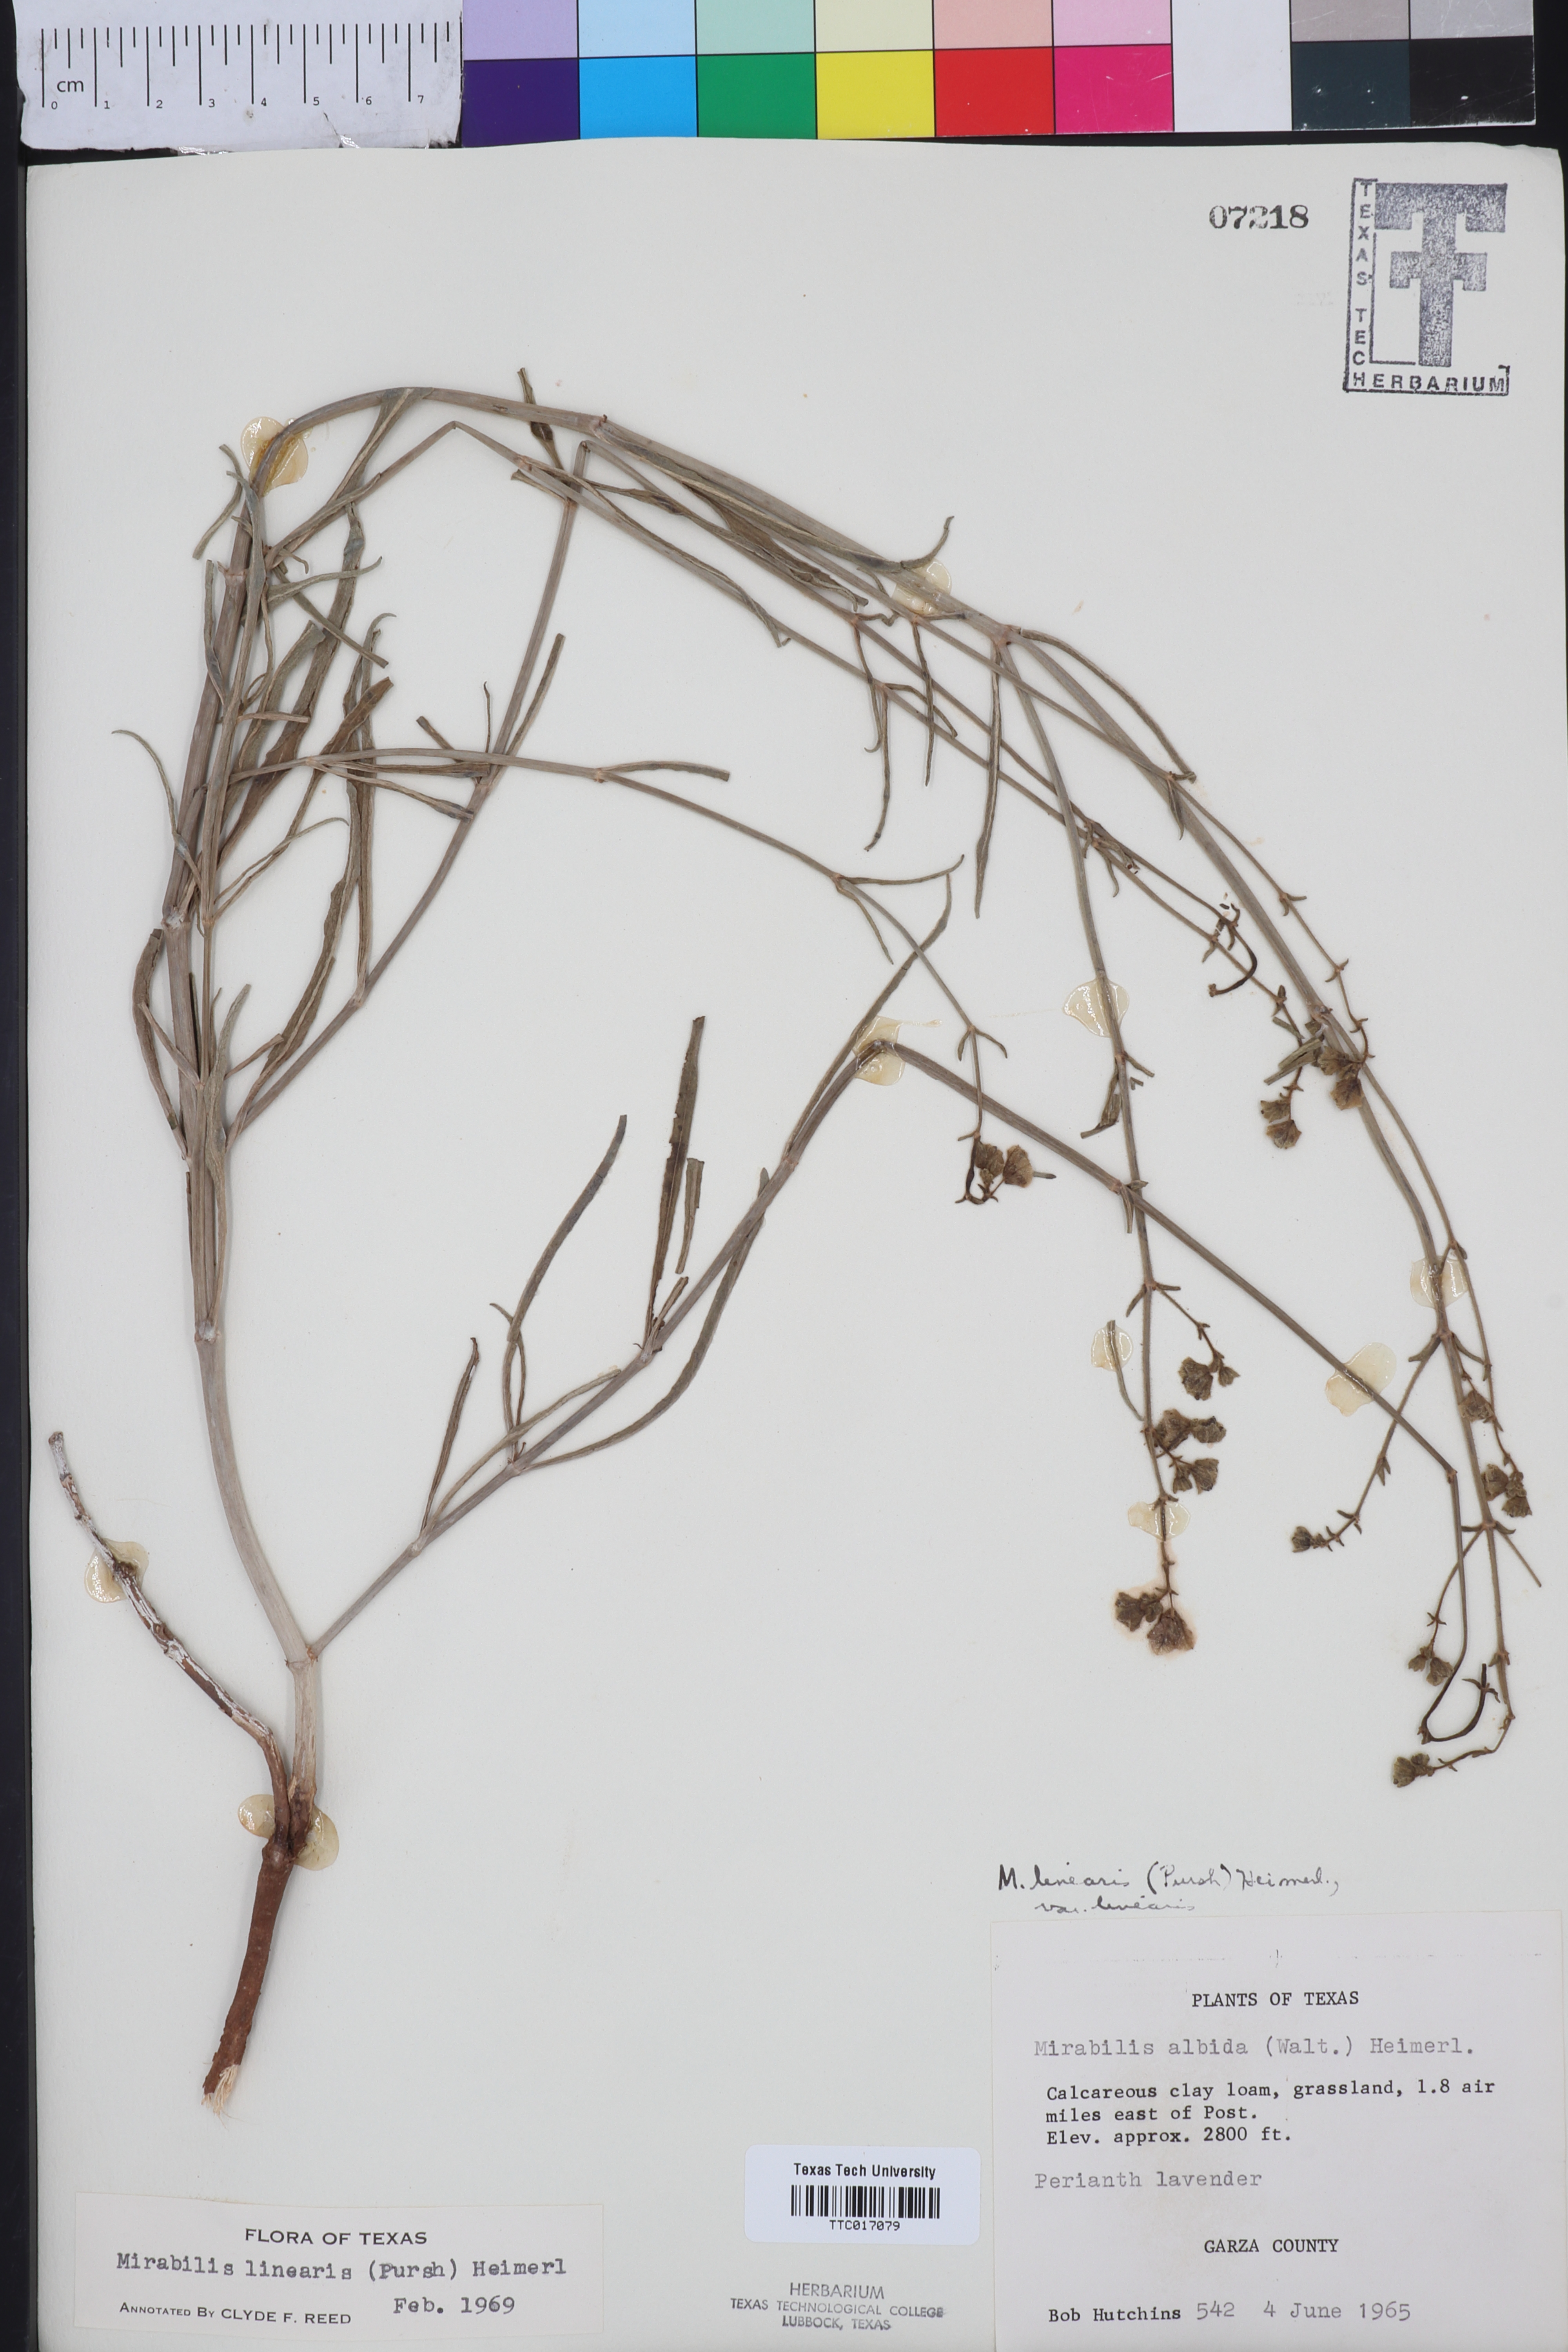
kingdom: Plantae
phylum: Tracheophyta
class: Magnoliopsida
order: Caryophyllales
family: Nyctaginaceae
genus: Mirabilis
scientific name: Mirabilis linearis
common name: Linear-leaved four-o'clock
